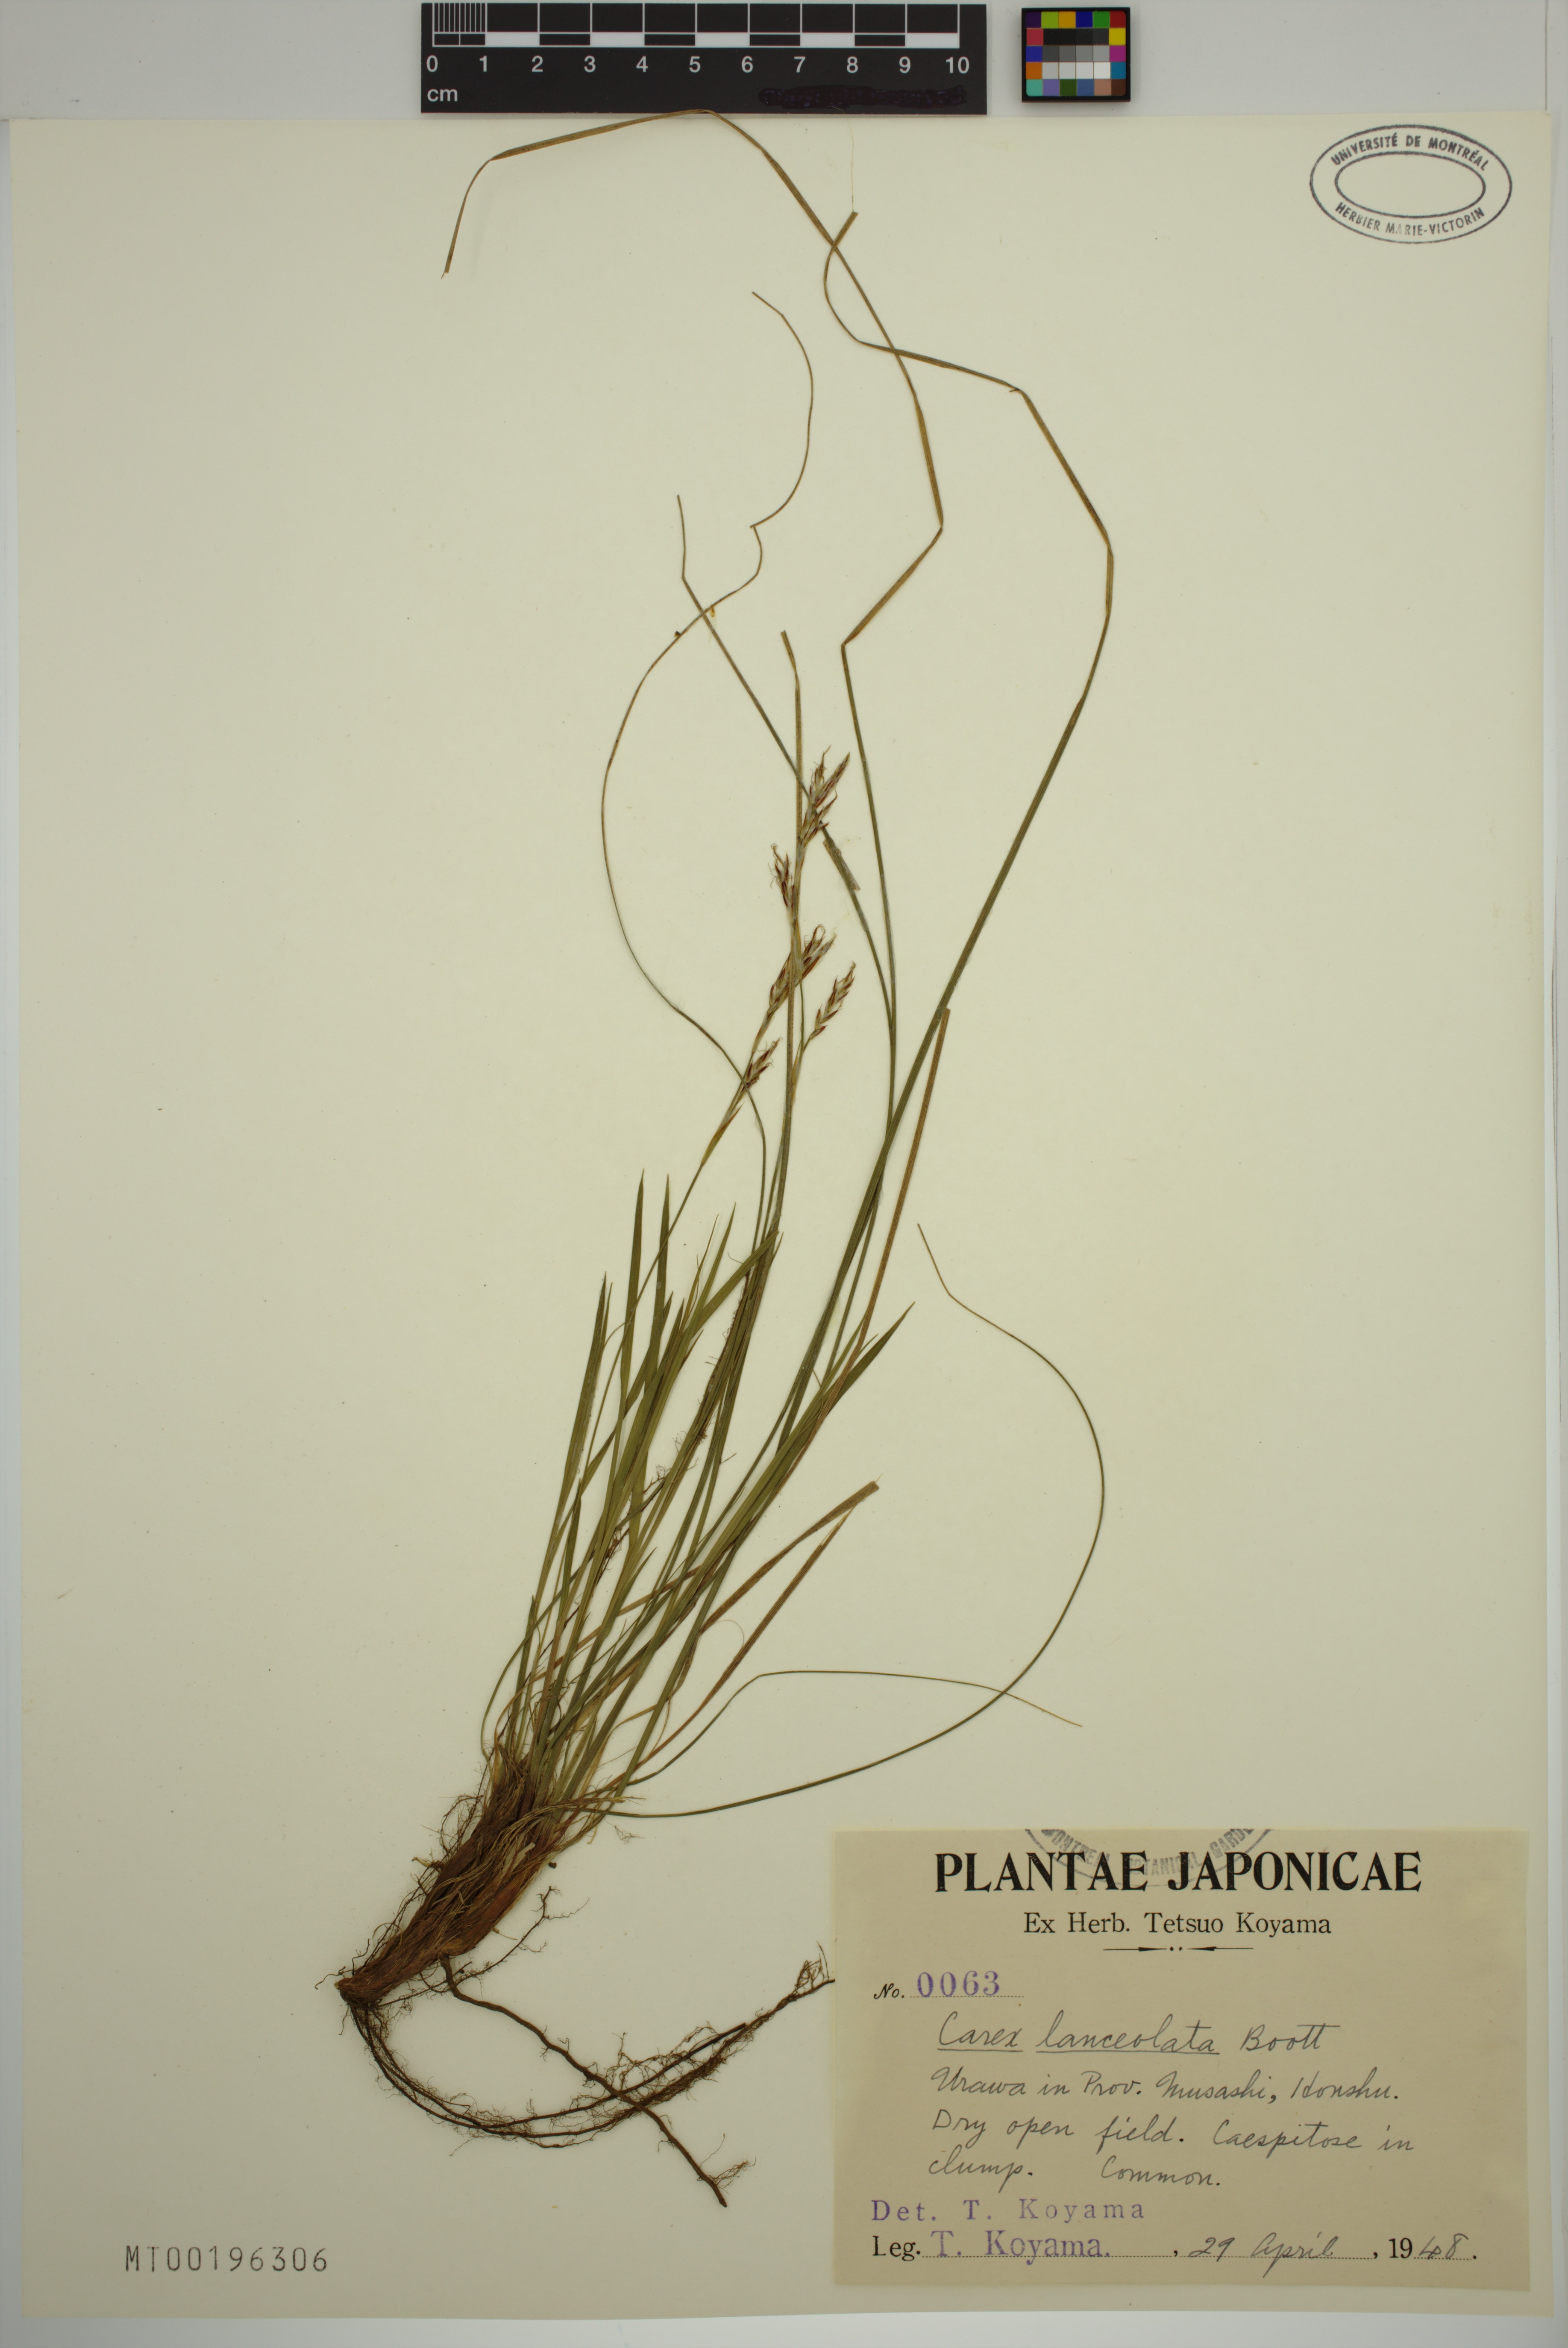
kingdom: Plantae
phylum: Tracheophyta
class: Liliopsida
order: Poales
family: Cyperaceae
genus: Carex
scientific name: Carex lanceolata
